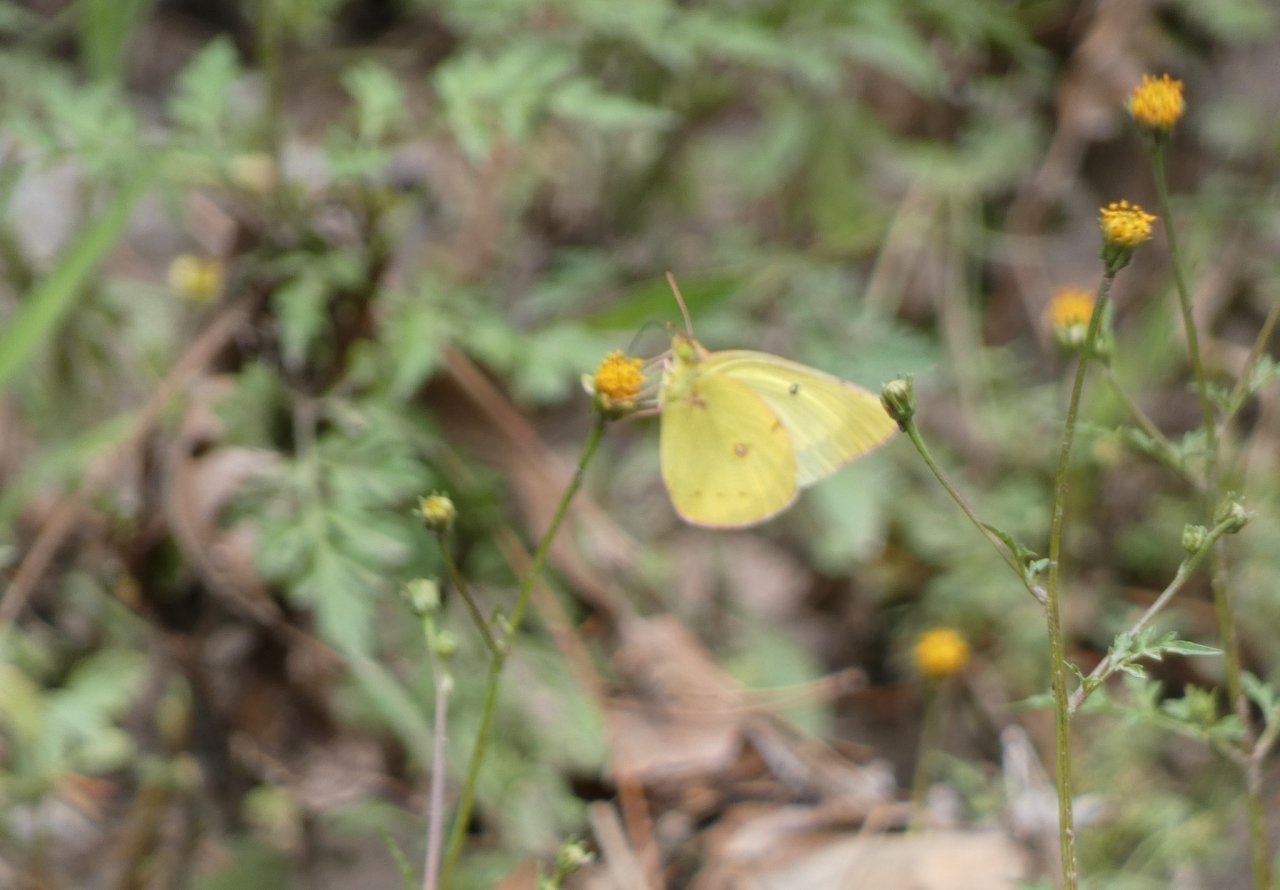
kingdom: Animalia
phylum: Arthropoda
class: Insecta
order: Lepidoptera
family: Pieridae
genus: Colias
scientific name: Colias philodice
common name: Clouded Sulphur
